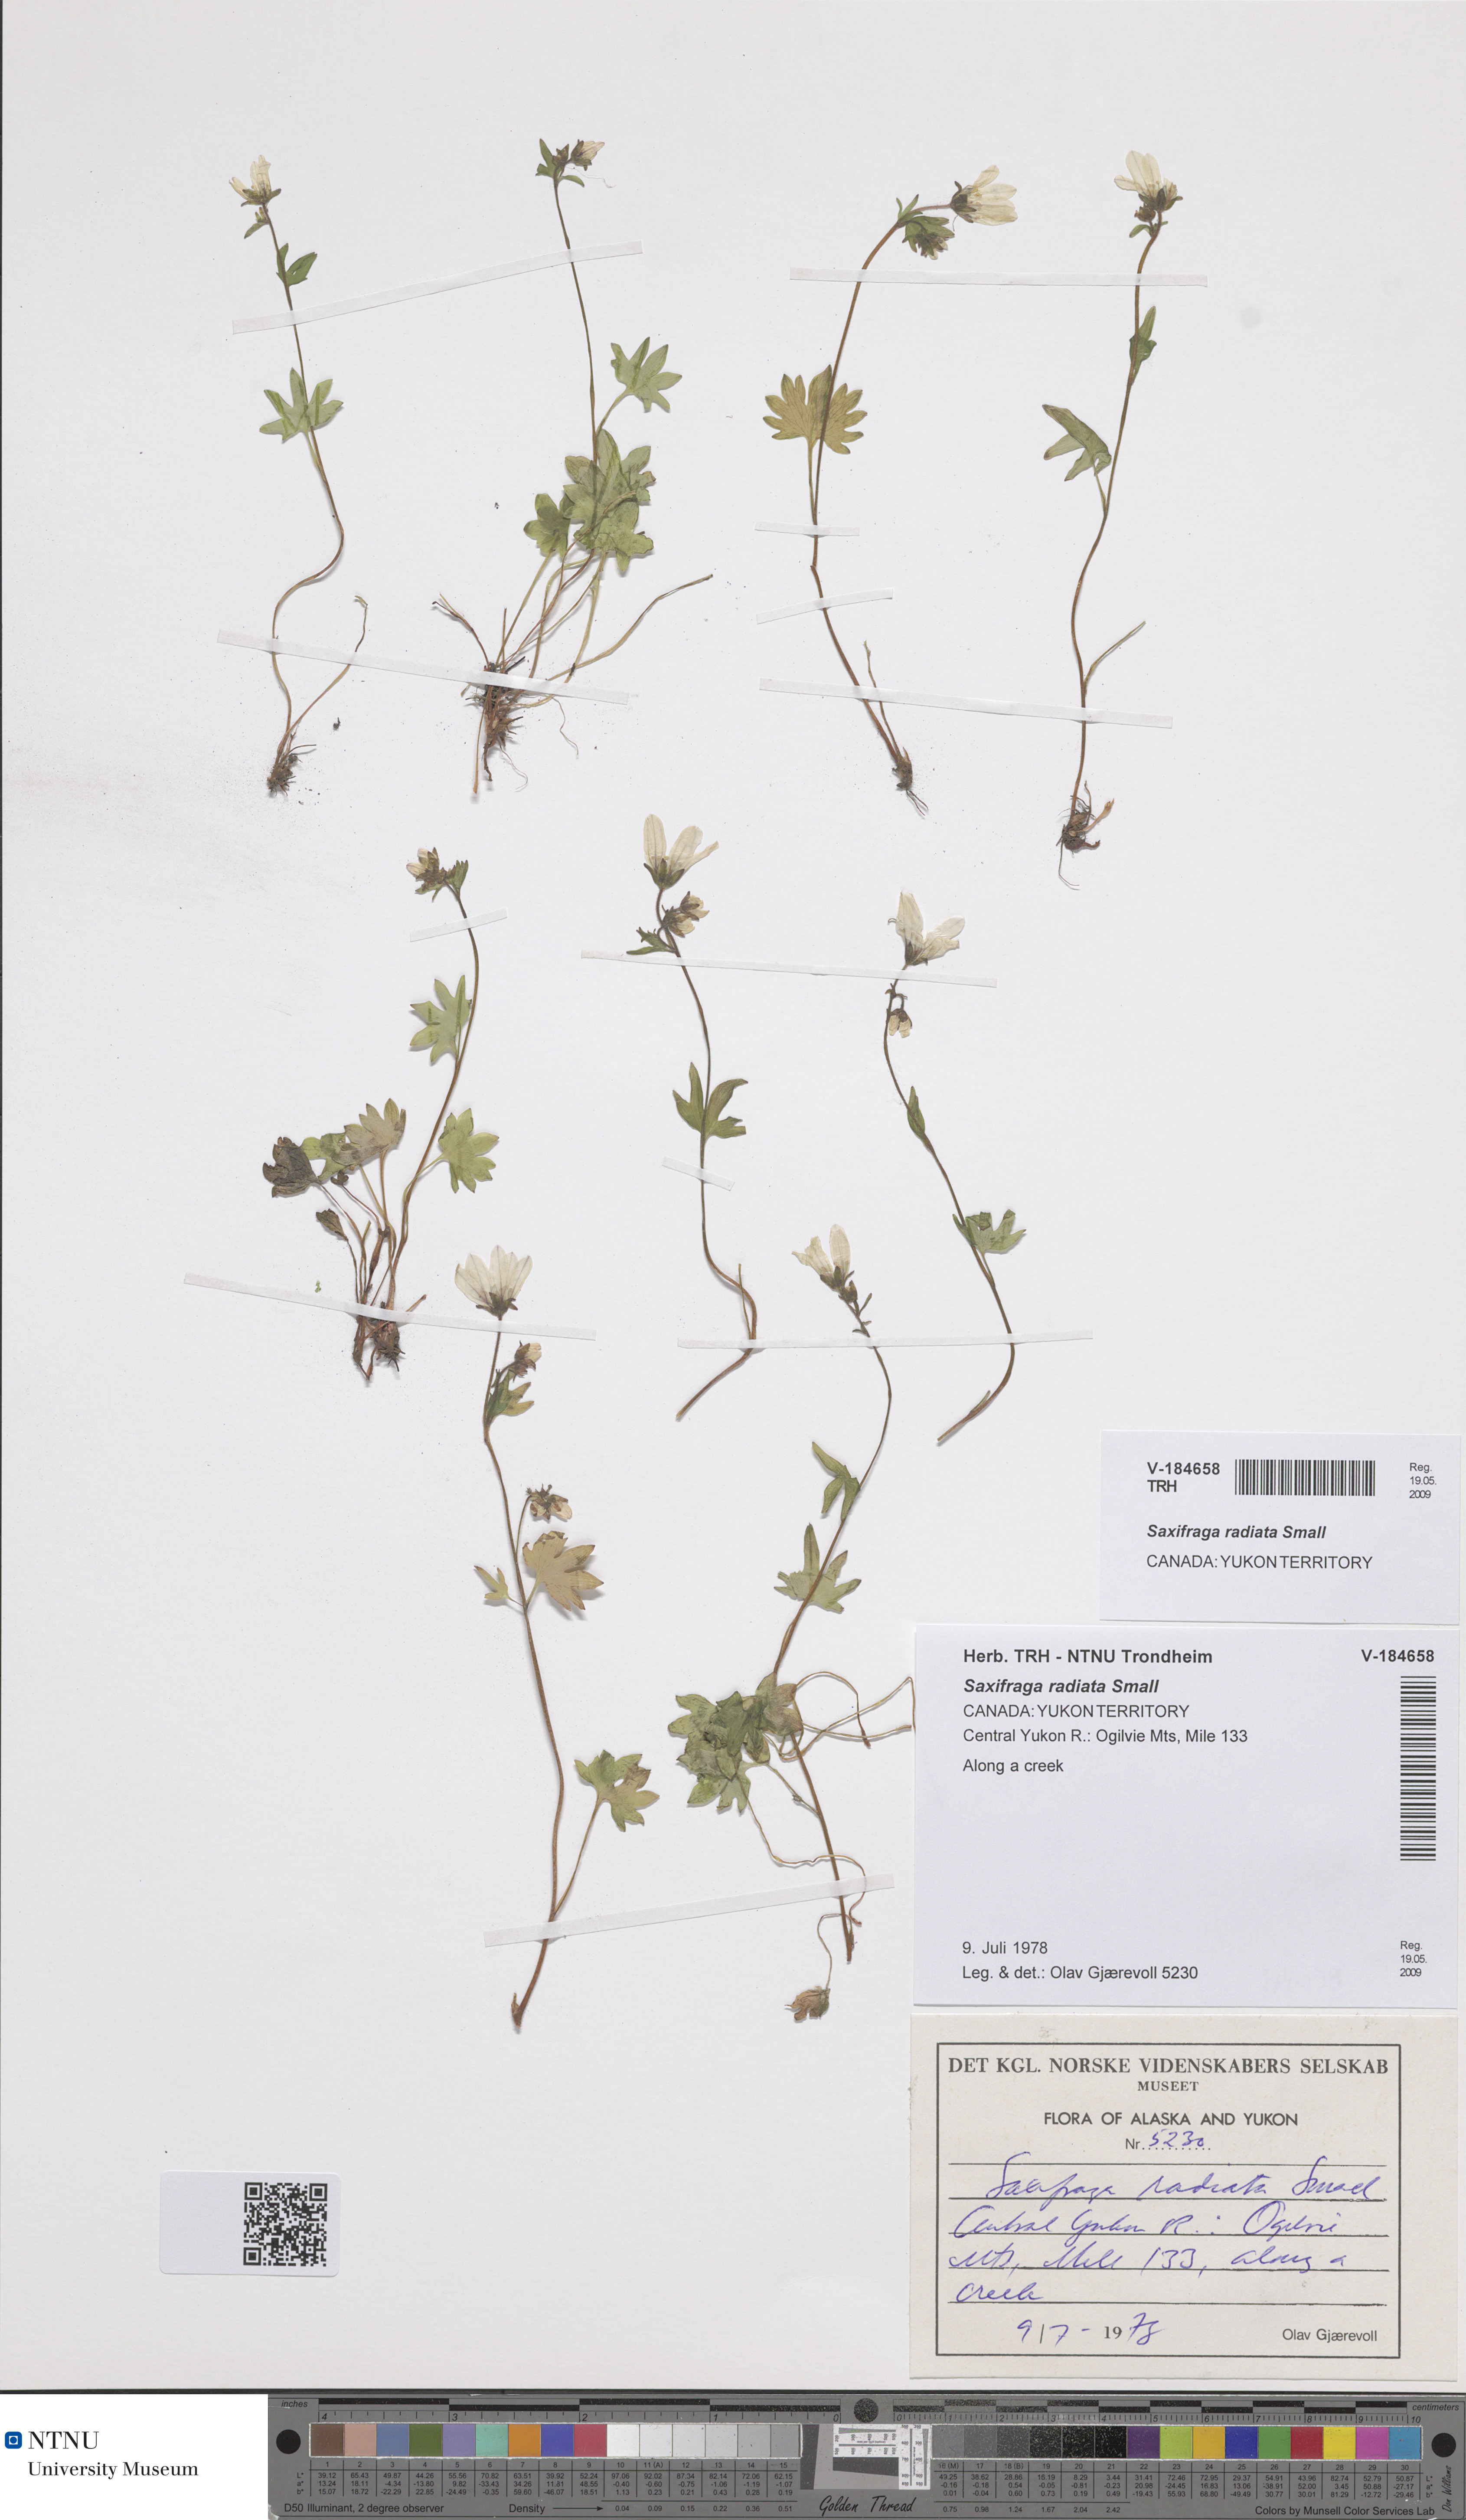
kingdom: Plantae
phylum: Tracheophyta
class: Magnoliopsida
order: Saxifragales
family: Saxifragaceae
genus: Saxifraga
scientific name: Saxifraga sibirica
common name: Siberian saxifrage
